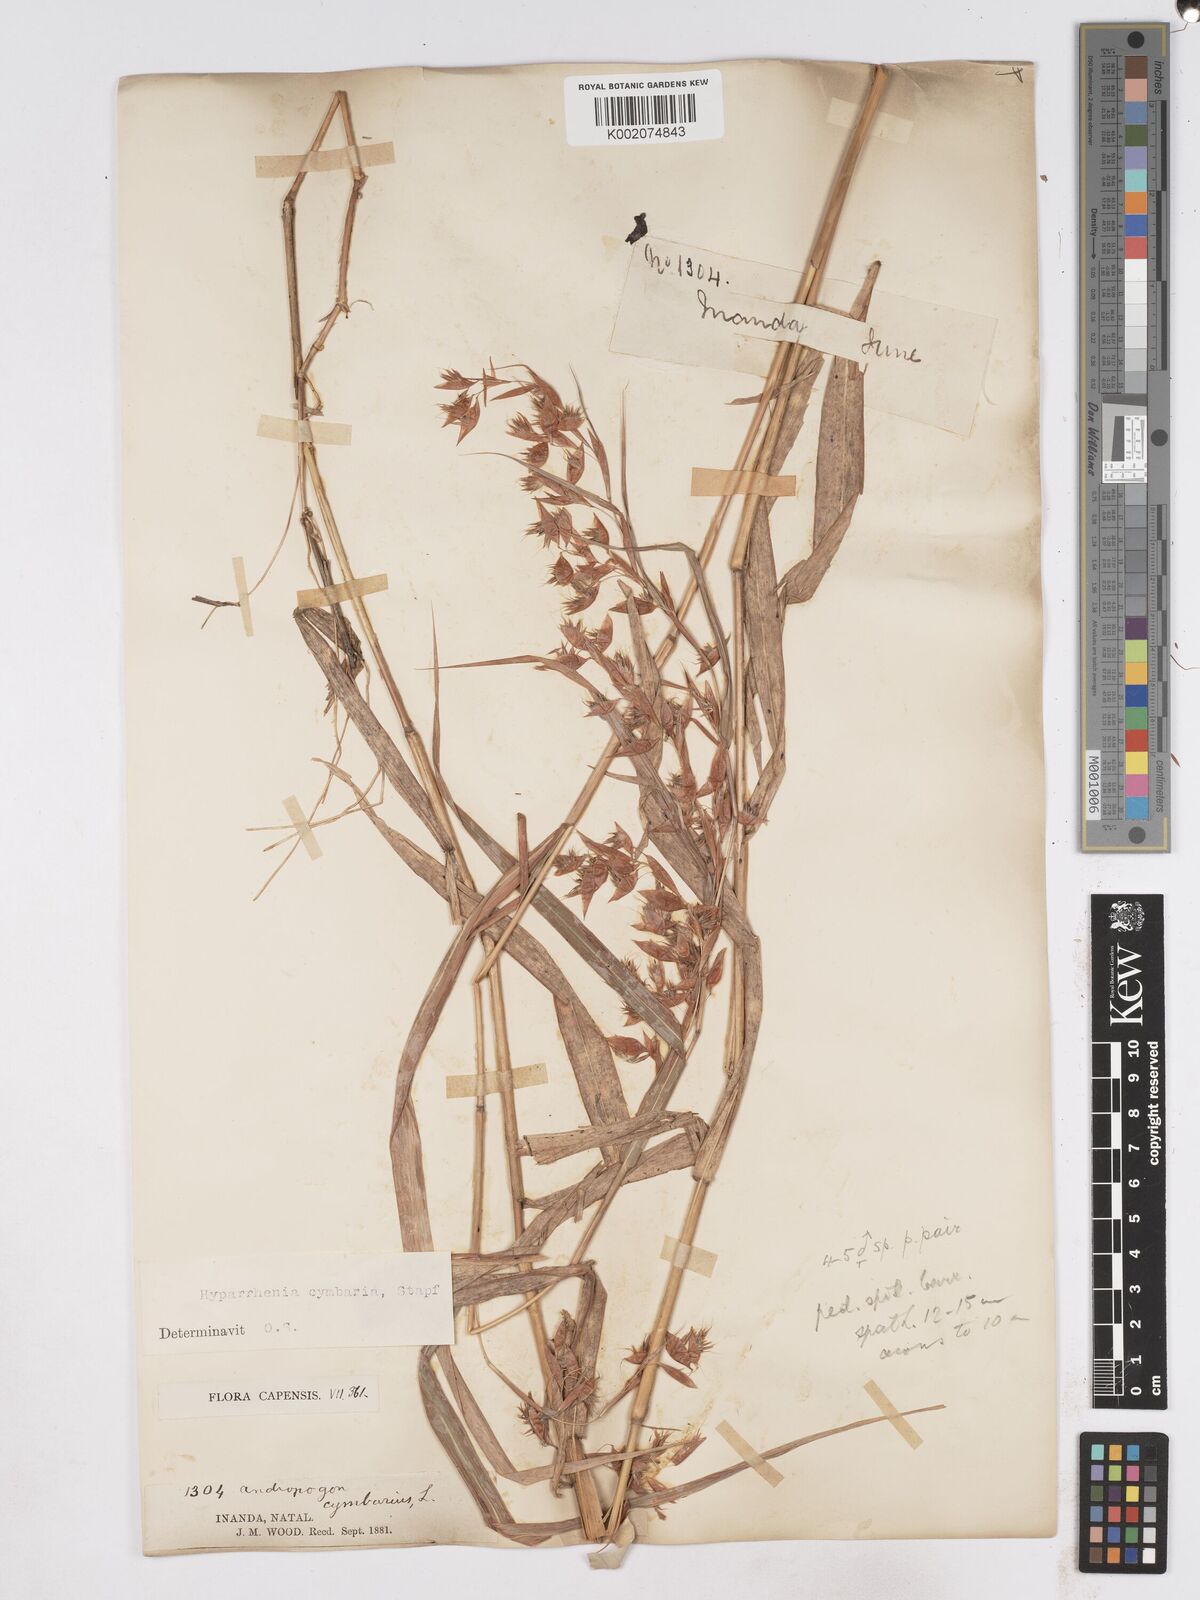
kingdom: Plantae
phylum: Tracheophyta
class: Liliopsida
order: Poales
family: Poaceae
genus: Hyparrhenia
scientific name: Hyparrhenia cymbaria
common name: Boat thatching grass
